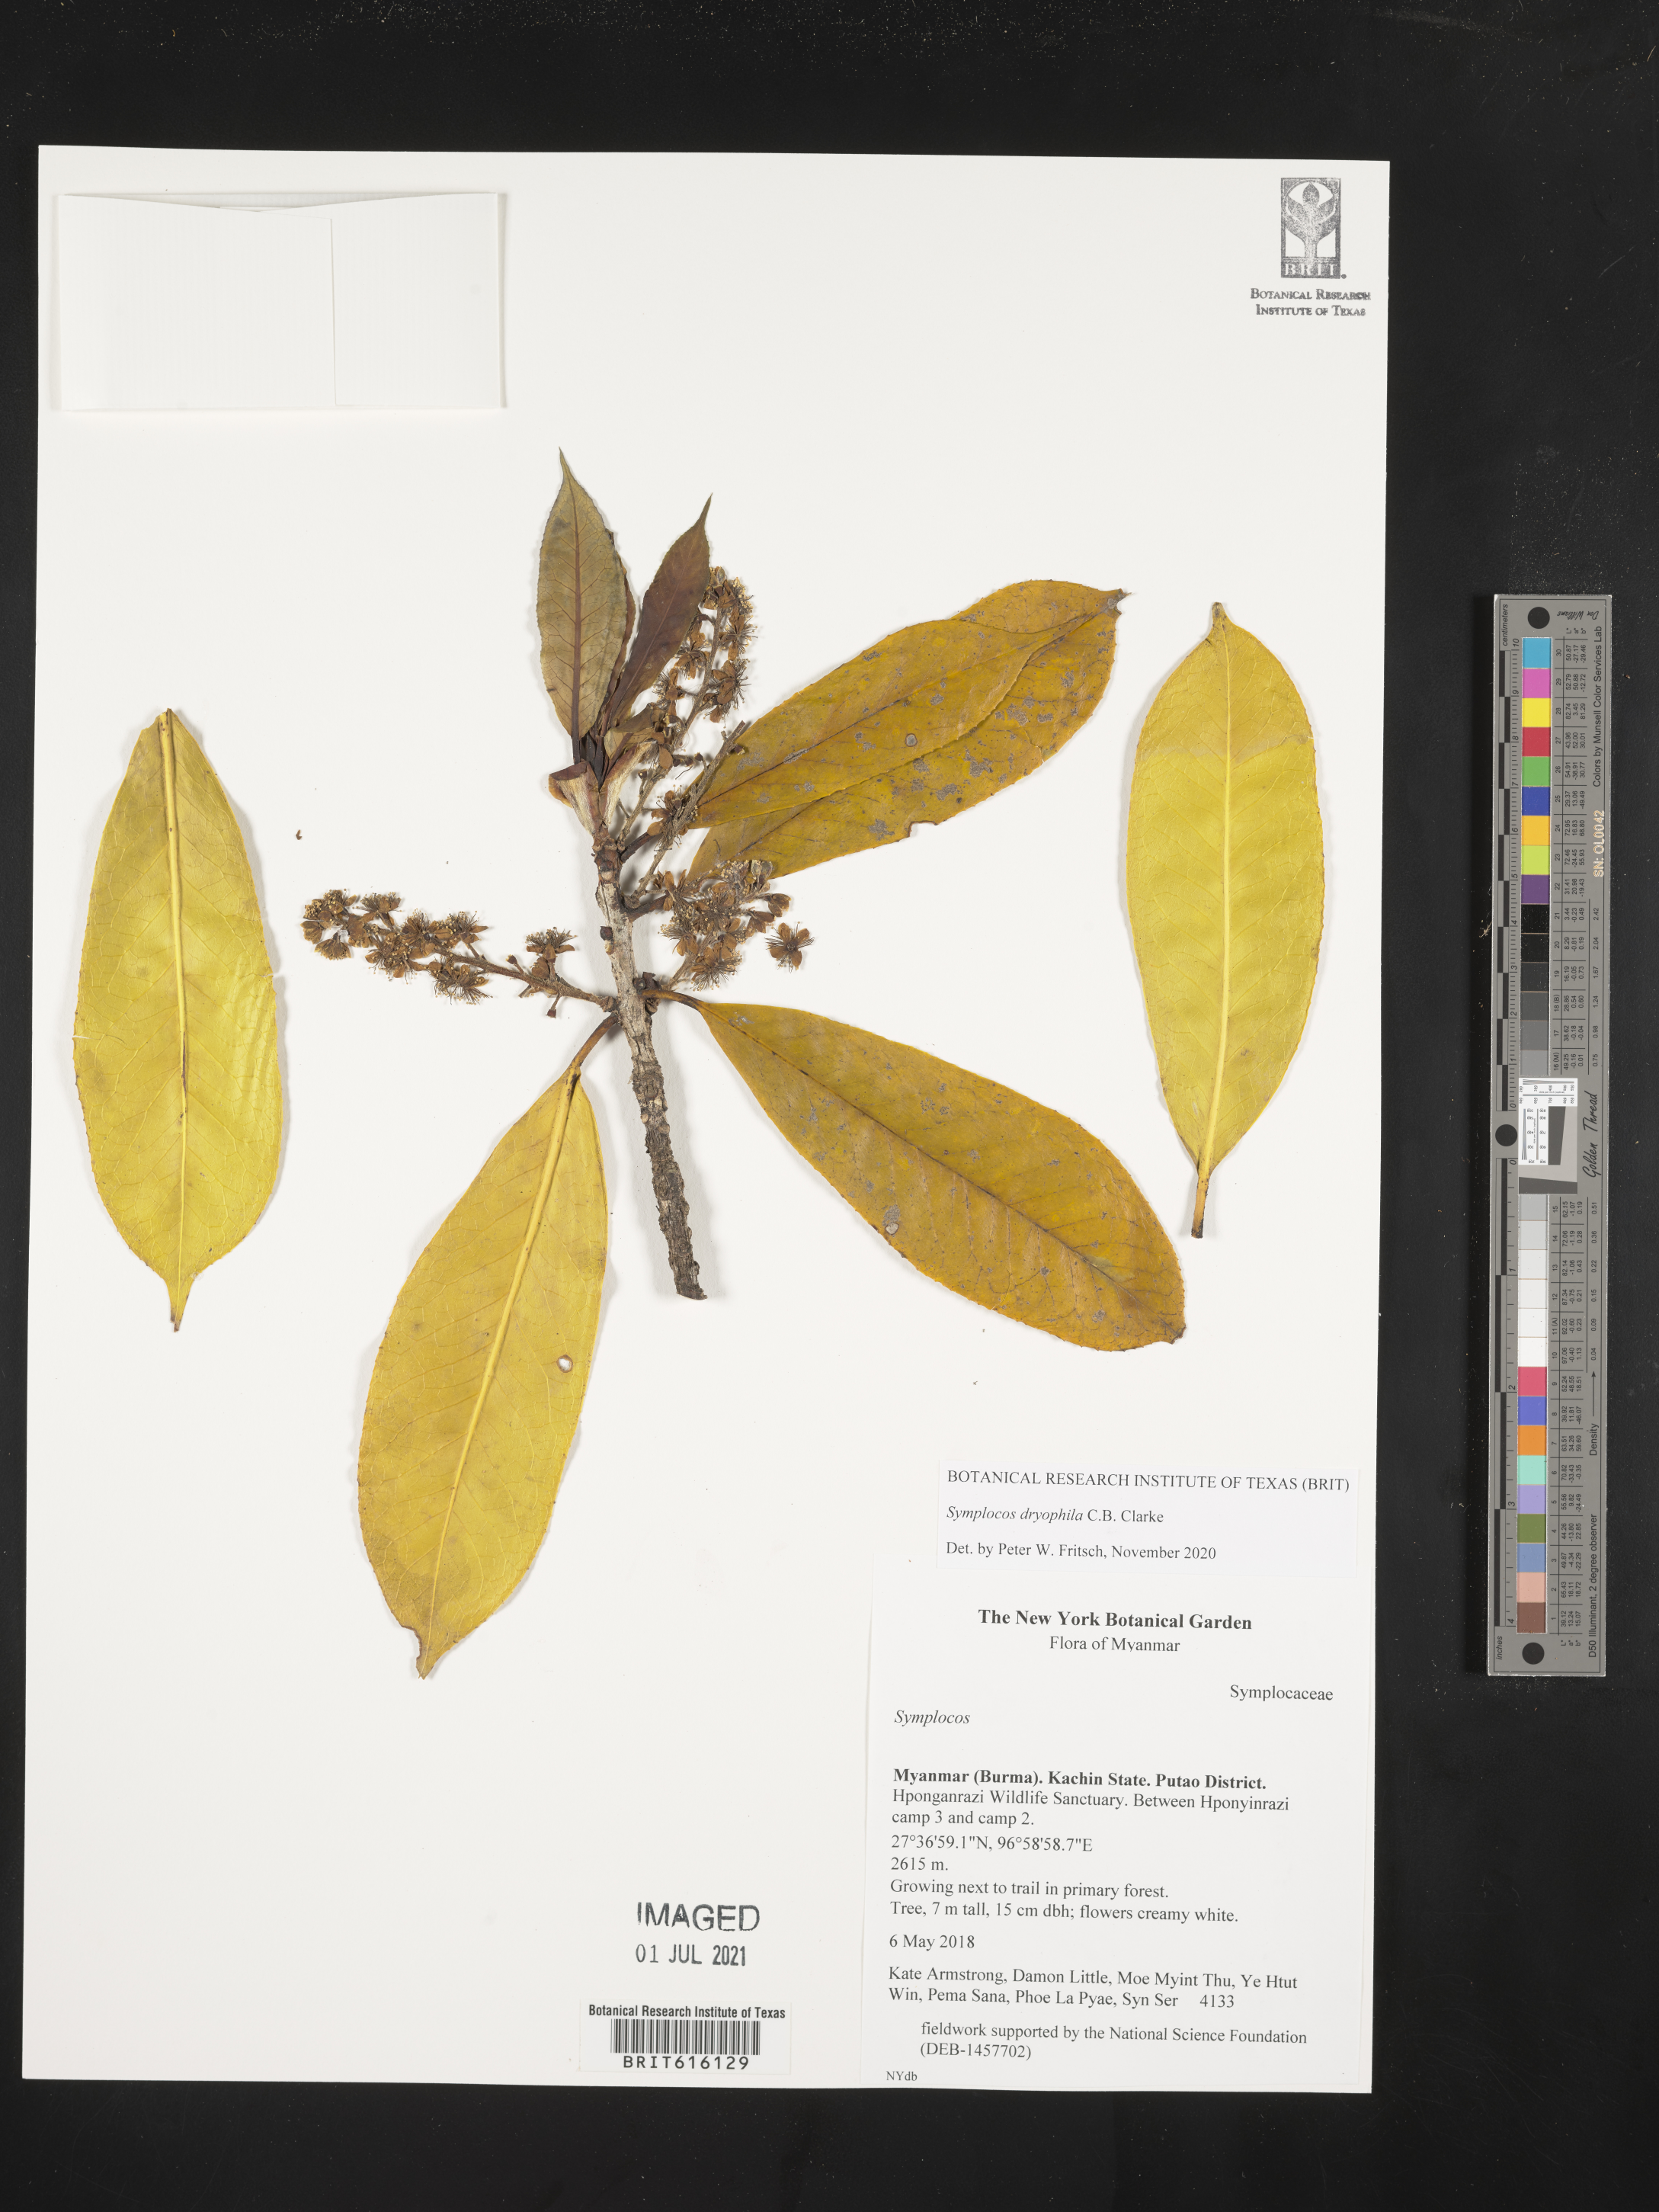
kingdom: Plantae
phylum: Tracheophyta
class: Magnoliopsida
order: Ericales
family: Symplocaceae
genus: Symplocos
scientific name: Symplocos dryophila
